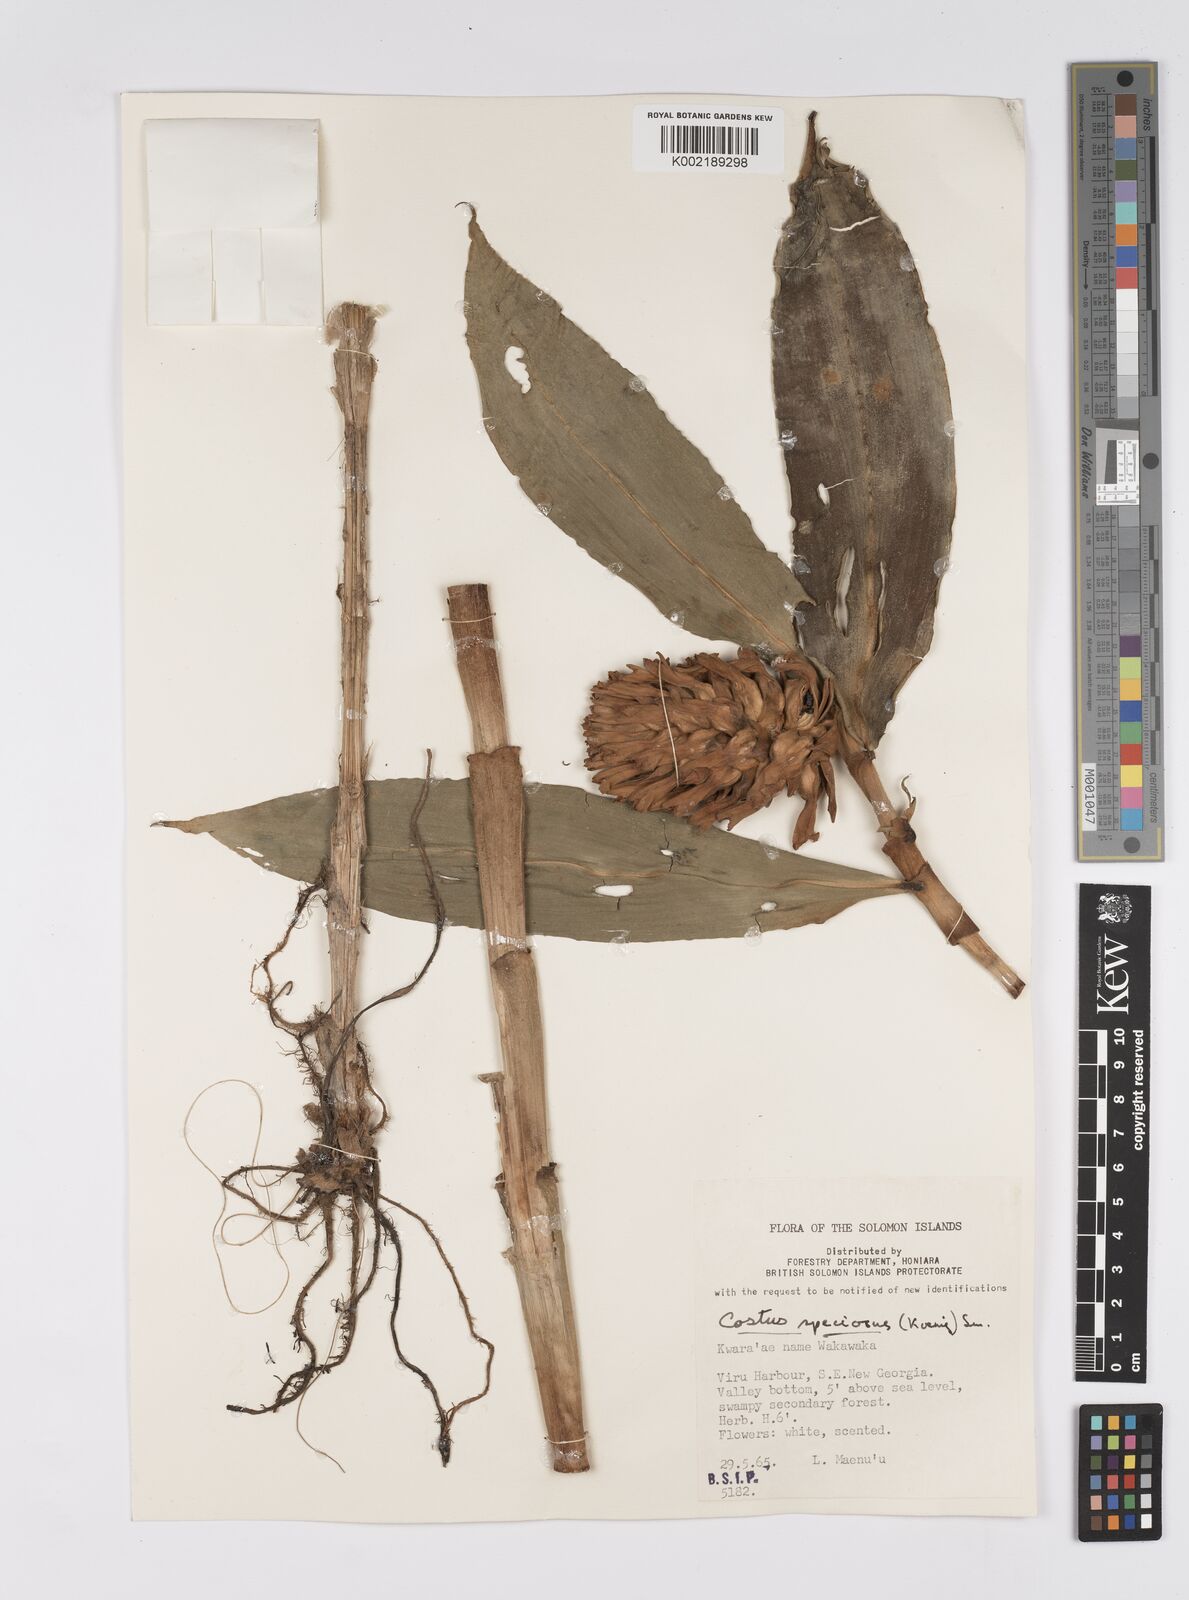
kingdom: Plantae
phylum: Tracheophyta
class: Liliopsida
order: Zingiberales
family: Costaceae
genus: Hellenia
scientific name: Hellenia speciosa
